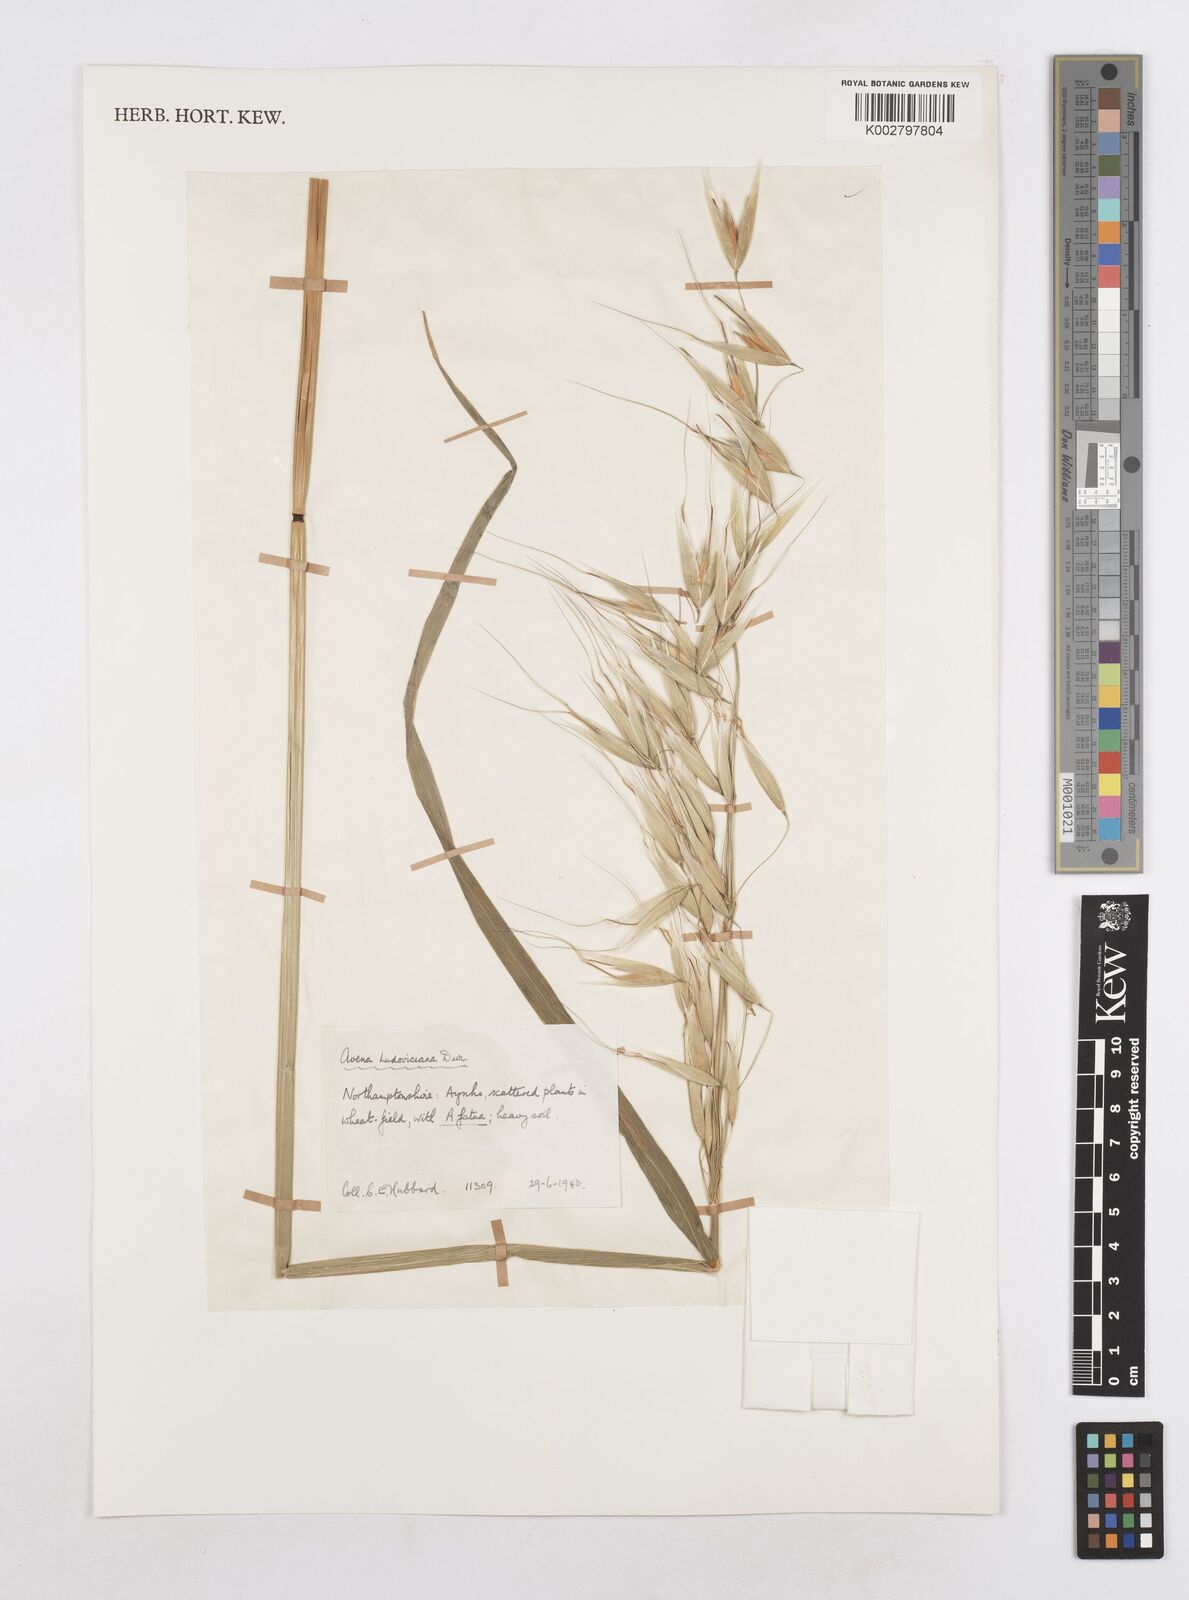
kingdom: Plantae
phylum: Tracheophyta
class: Liliopsida
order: Poales
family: Poaceae
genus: Avena
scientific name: Avena sterilis
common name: Animated oat
